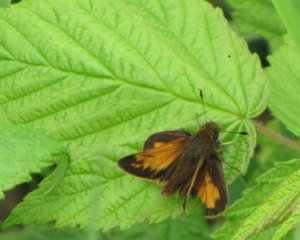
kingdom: Animalia
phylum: Arthropoda
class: Insecta
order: Lepidoptera
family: Hesperiidae
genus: Lon
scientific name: Lon hobomok
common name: Hobomok Skipper
